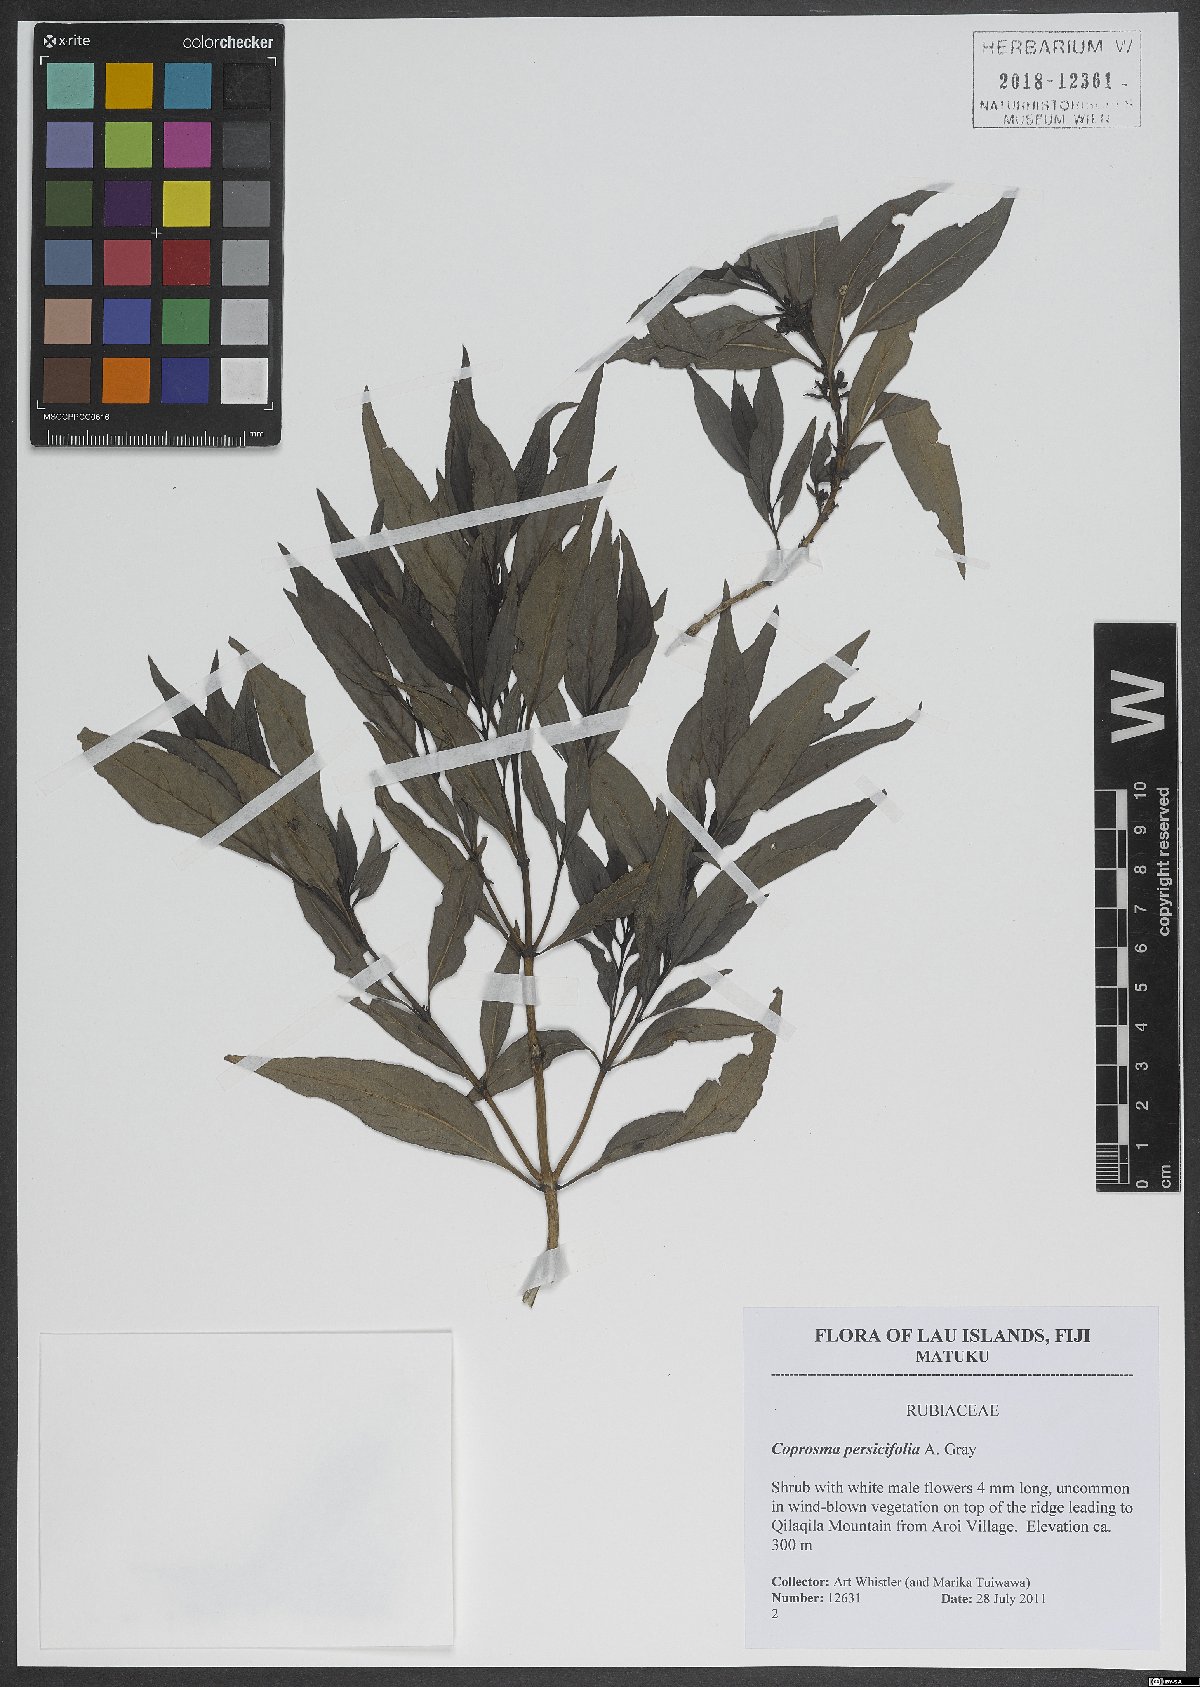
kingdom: Plantae
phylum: Tracheophyta
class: Magnoliopsida
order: Gentianales
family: Rubiaceae
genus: Coprosma
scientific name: Coprosma persicifolia
